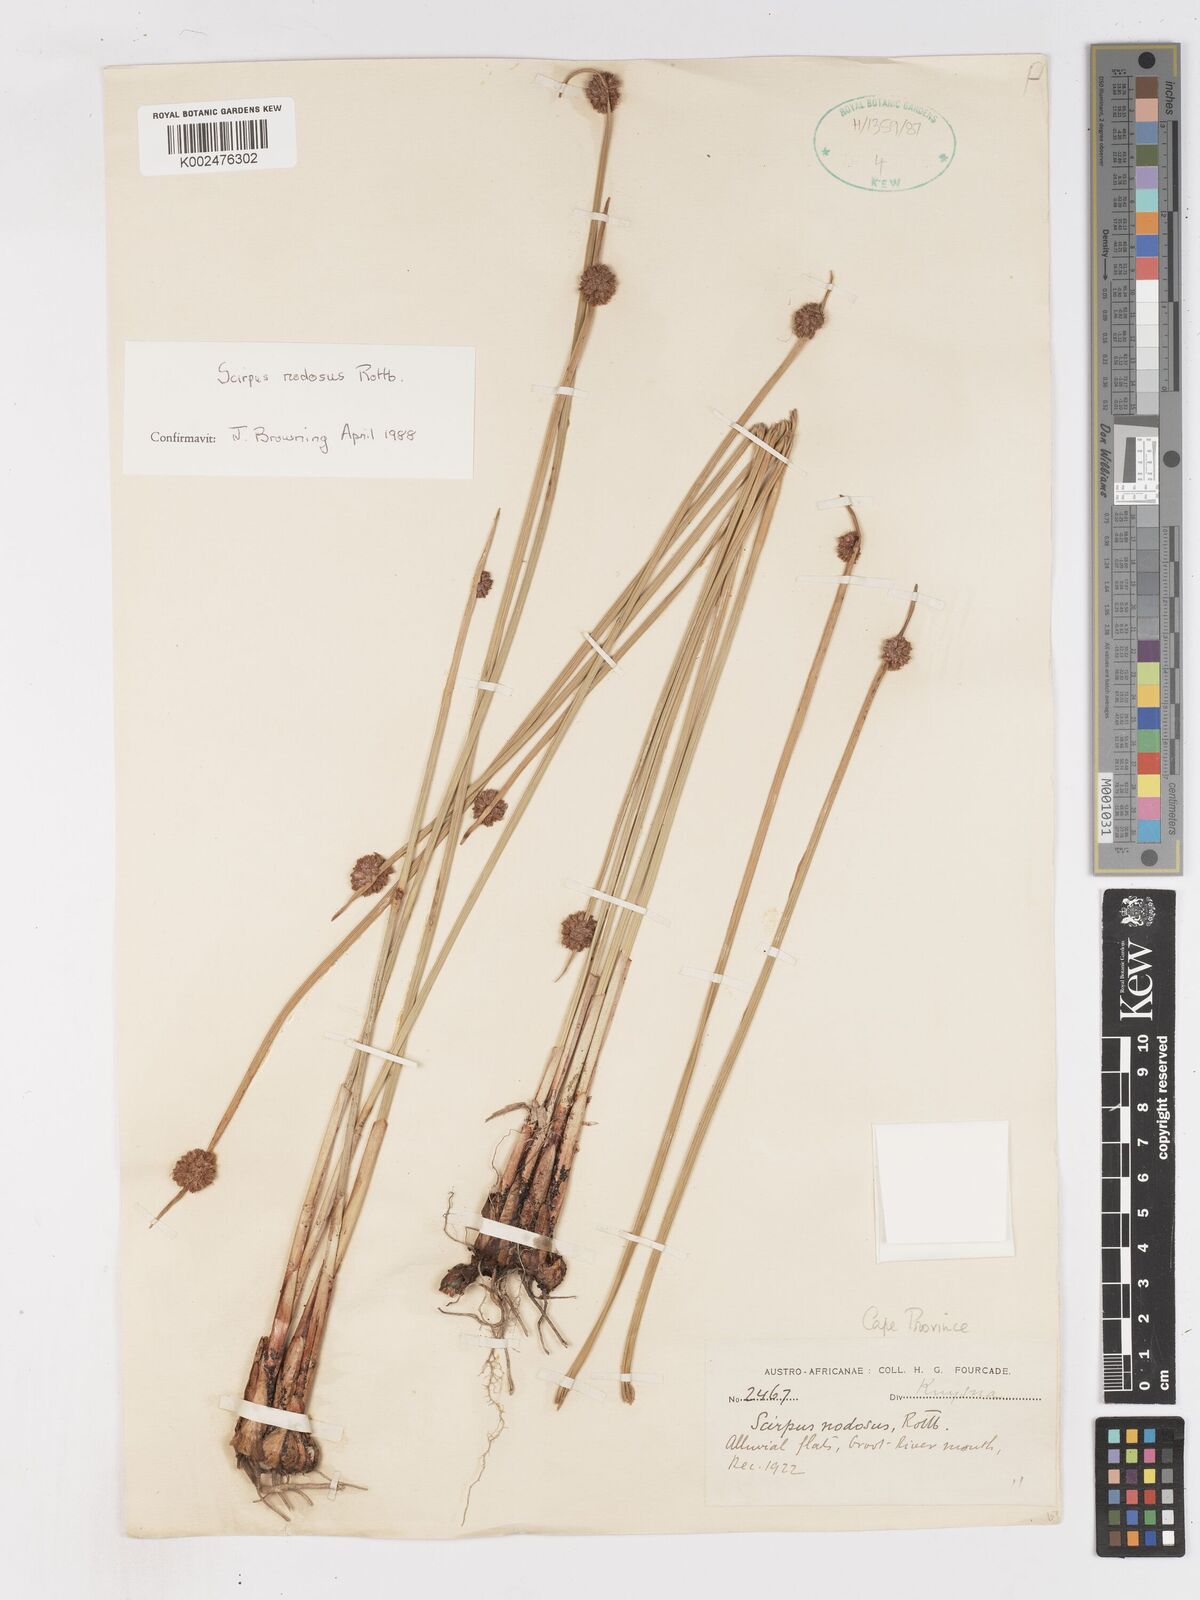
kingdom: Plantae
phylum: Tracheophyta
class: Liliopsida
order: Poales
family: Cyperaceae
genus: Ficinia
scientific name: Ficinia nodosa
